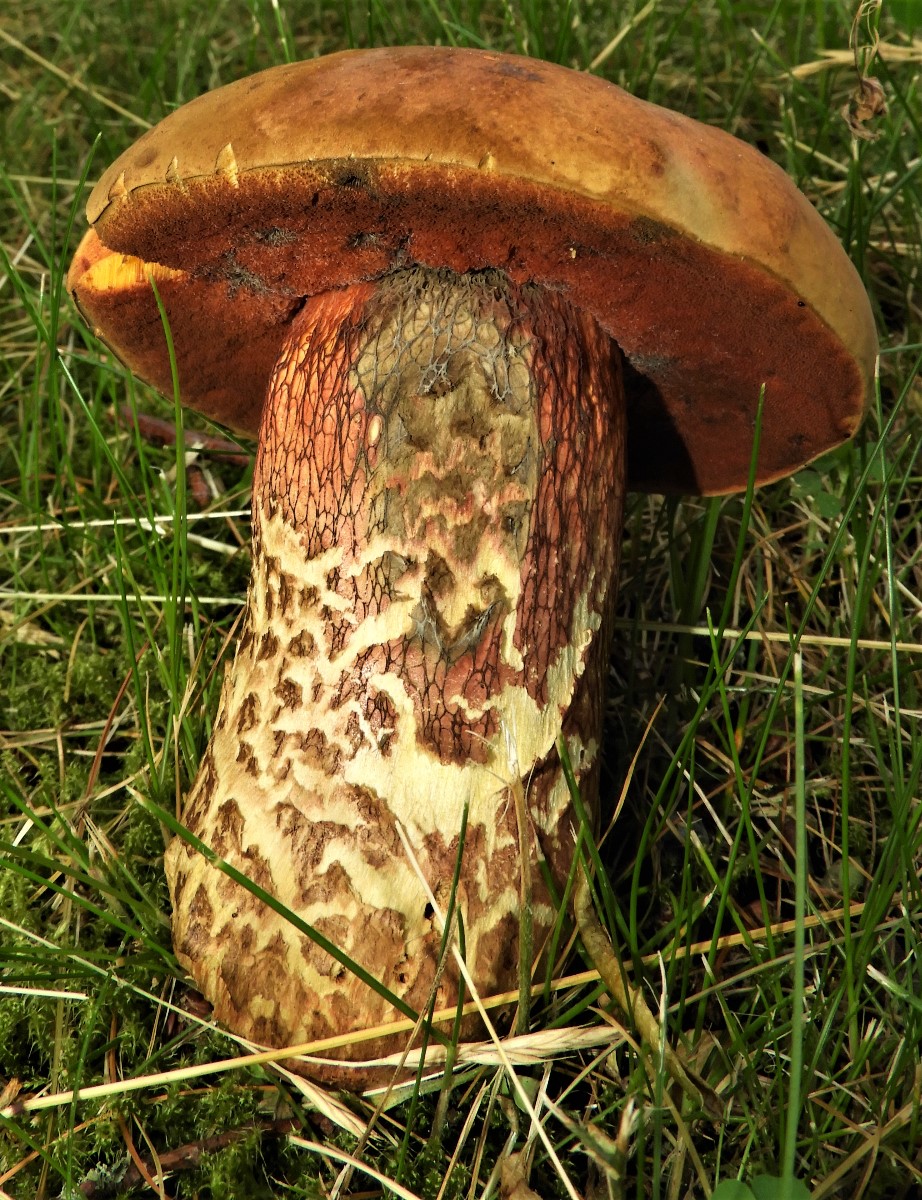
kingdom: Fungi
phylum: Basidiomycota
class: Agaricomycetes
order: Boletales
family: Boletaceae
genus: Suillellus
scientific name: Suillellus luridus
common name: netstokket indigorørhat
